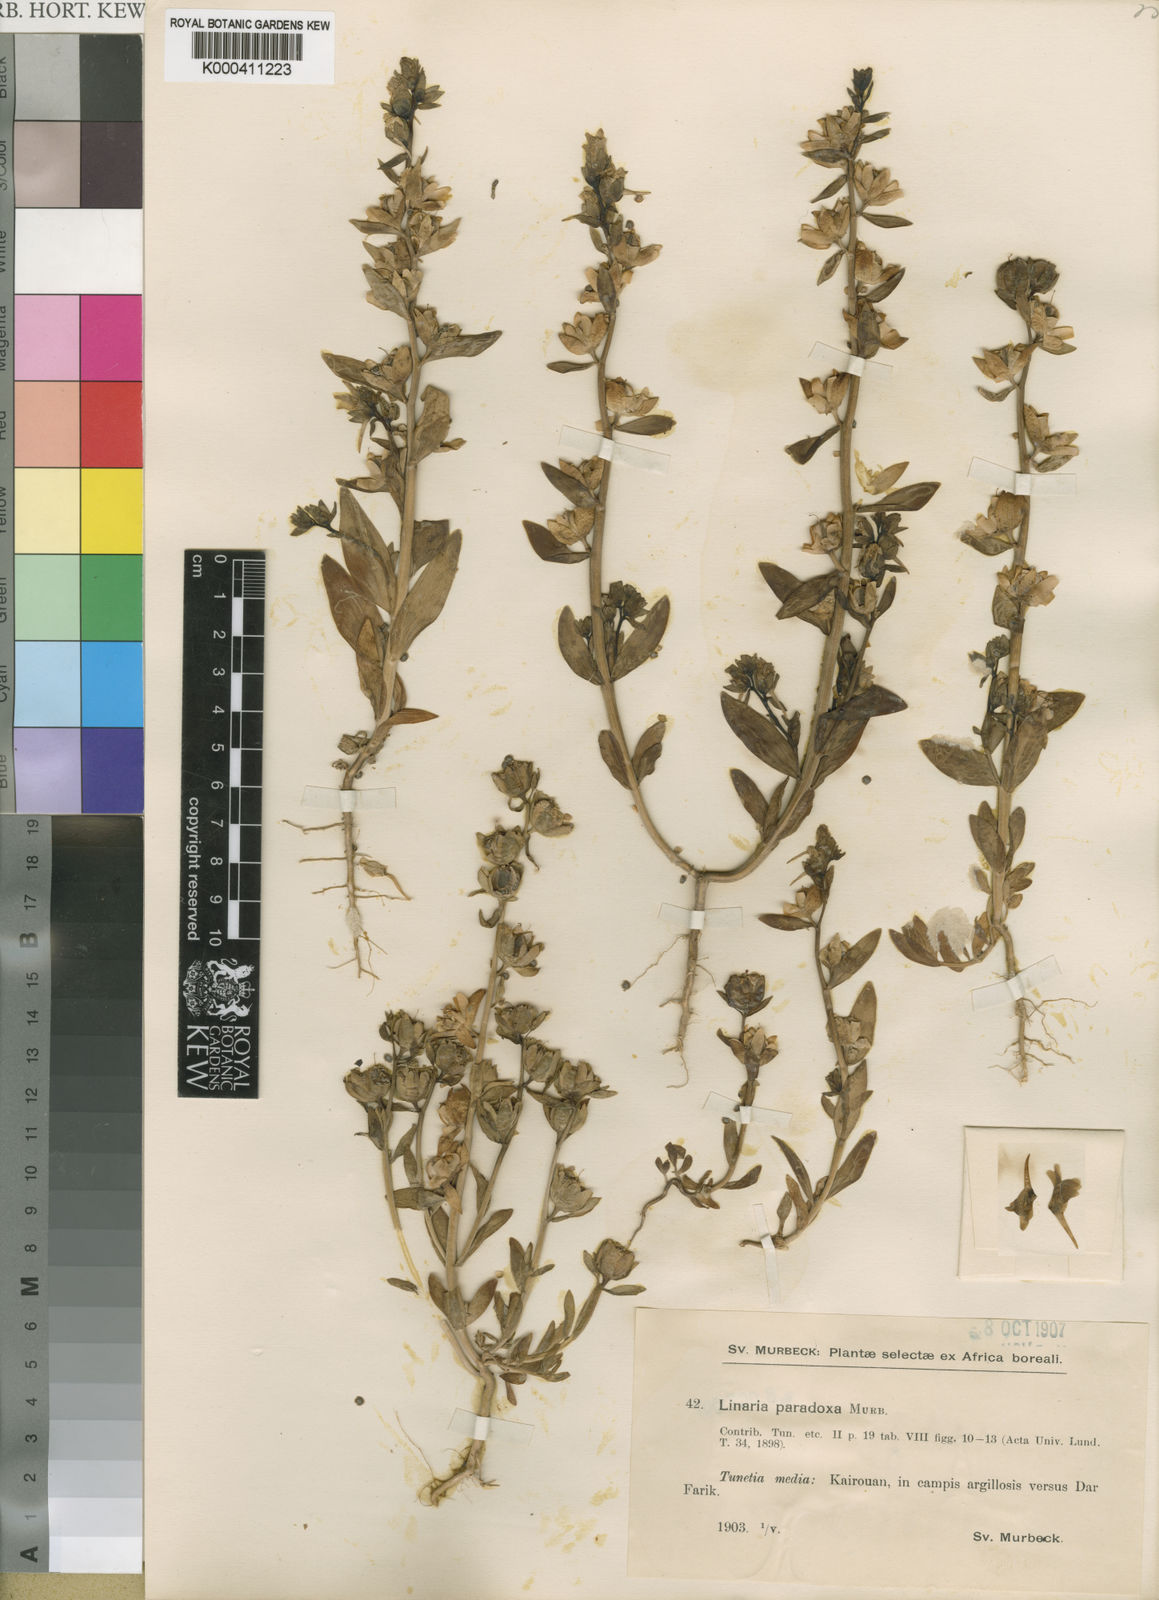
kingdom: Plantae
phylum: Tracheophyta
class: Magnoliopsida
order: Lamiales
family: Plantaginaceae
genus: Linaria
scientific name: Linaria paradoxa
